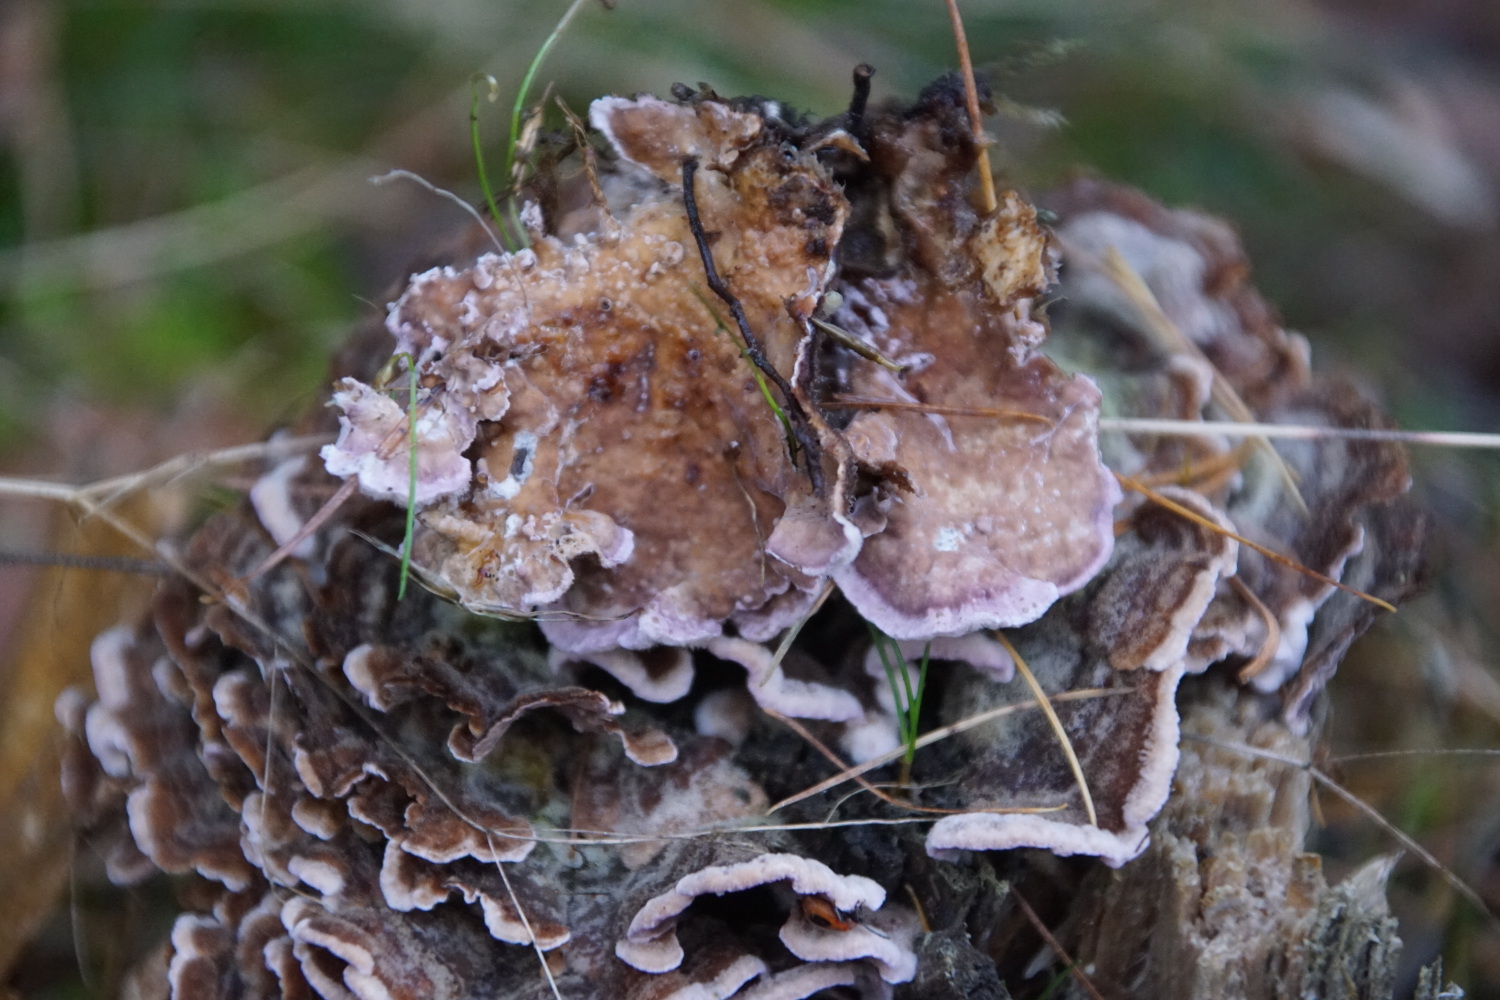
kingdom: Fungi
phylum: Basidiomycota
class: Agaricomycetes
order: Agaricales
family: Cyphellaceae
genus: Chondrostereum
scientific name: Chondrostereum purpureum
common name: purpurlædersvamp
